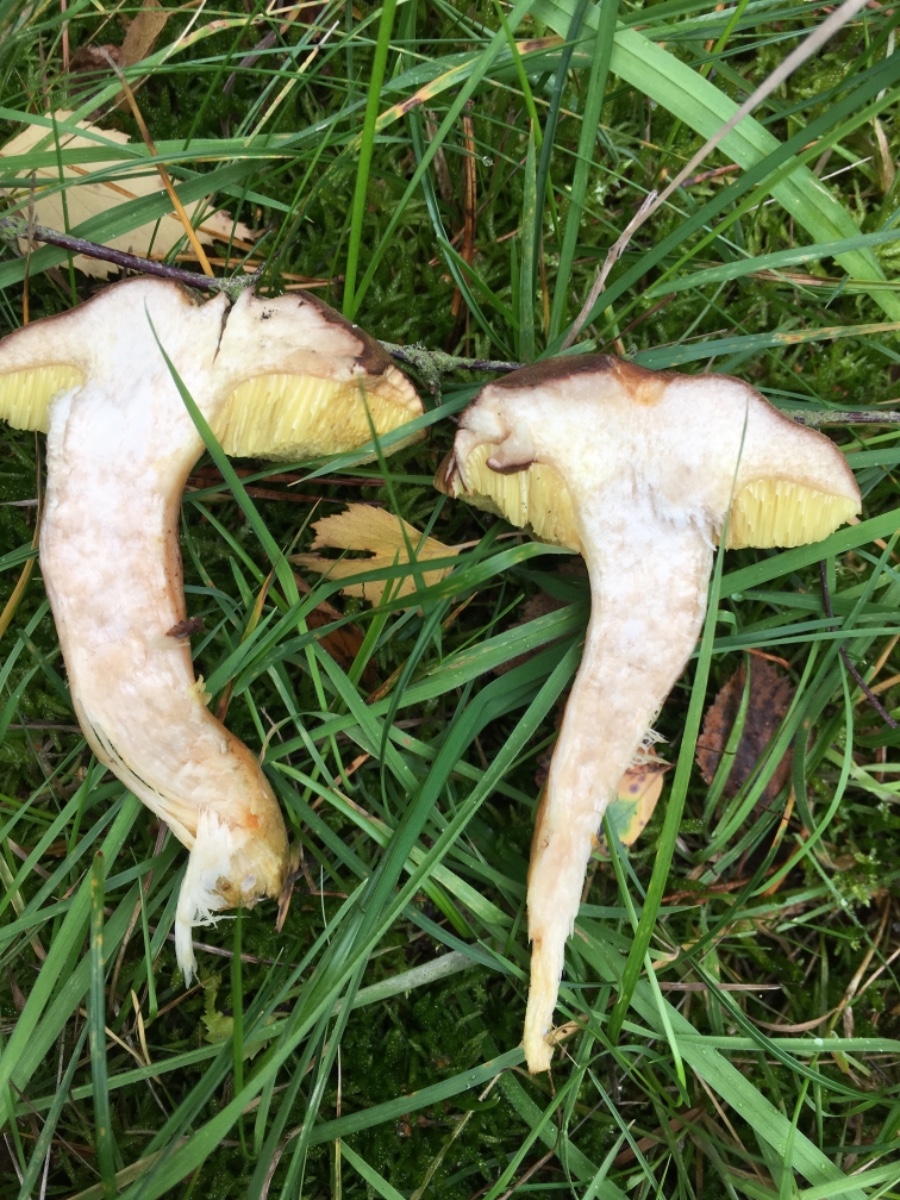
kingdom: Fungi
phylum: Basidiomycota
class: Agaricomycetes
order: Boletales
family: Boletaceae
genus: Xerocomus
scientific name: Xerocomus ferrugineus
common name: vaskeskinds-rørhat
